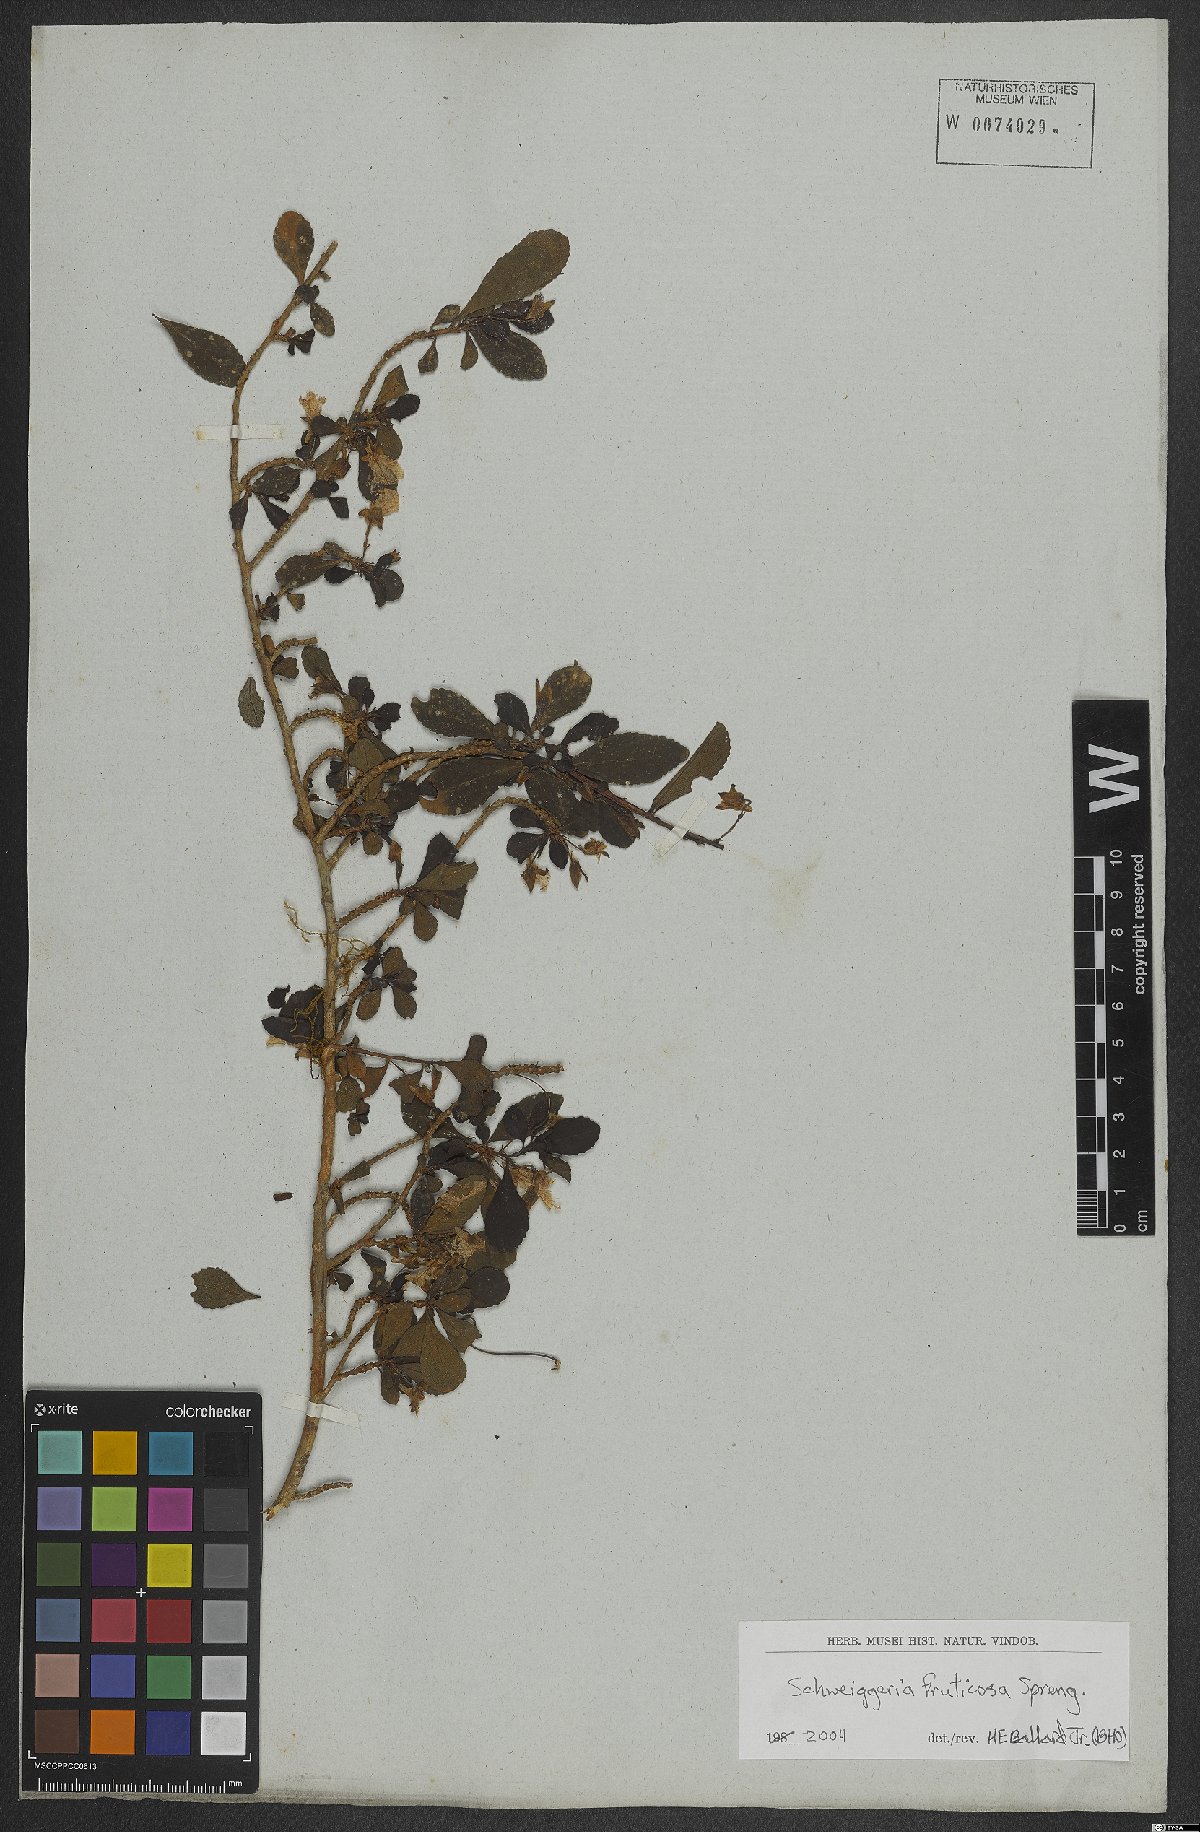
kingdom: Plantae
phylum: Tracheophyta
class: Magnoliopsida
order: Malpighiales
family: Violaceae
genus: Schweiggeria
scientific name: Schweiggeria fruticosa
